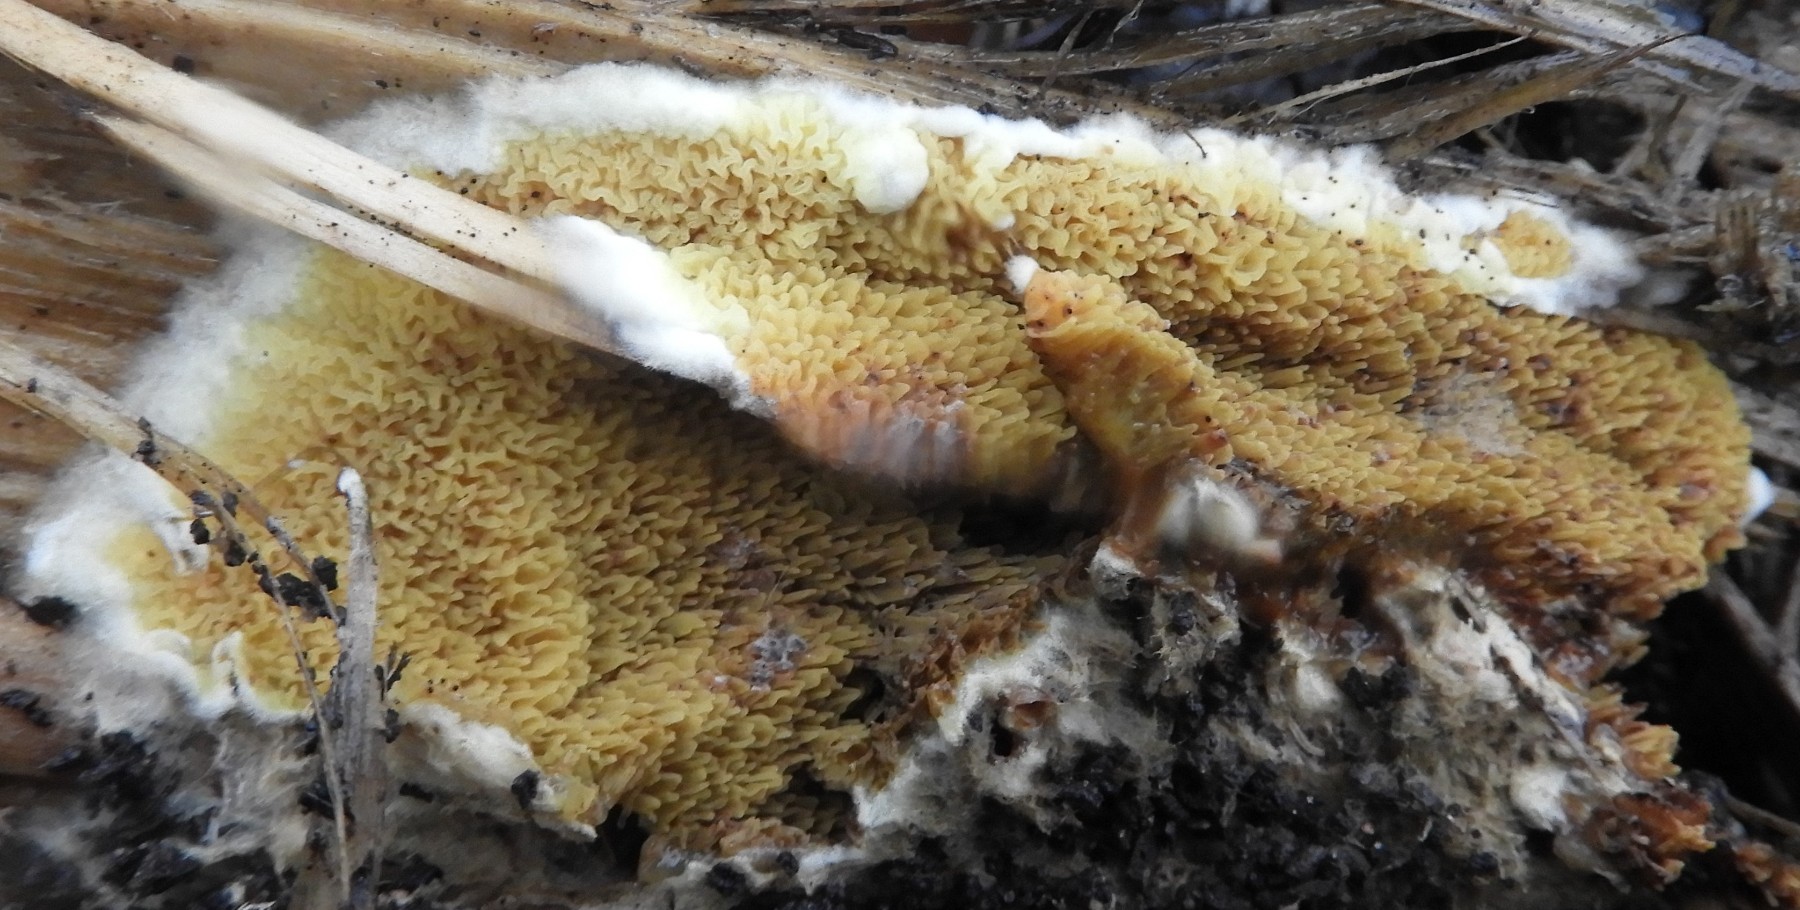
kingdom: Fungi
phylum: Basidiomycota
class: Agaricomycetes
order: Boletales
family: Serpulaceae
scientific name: Serpulaceae
